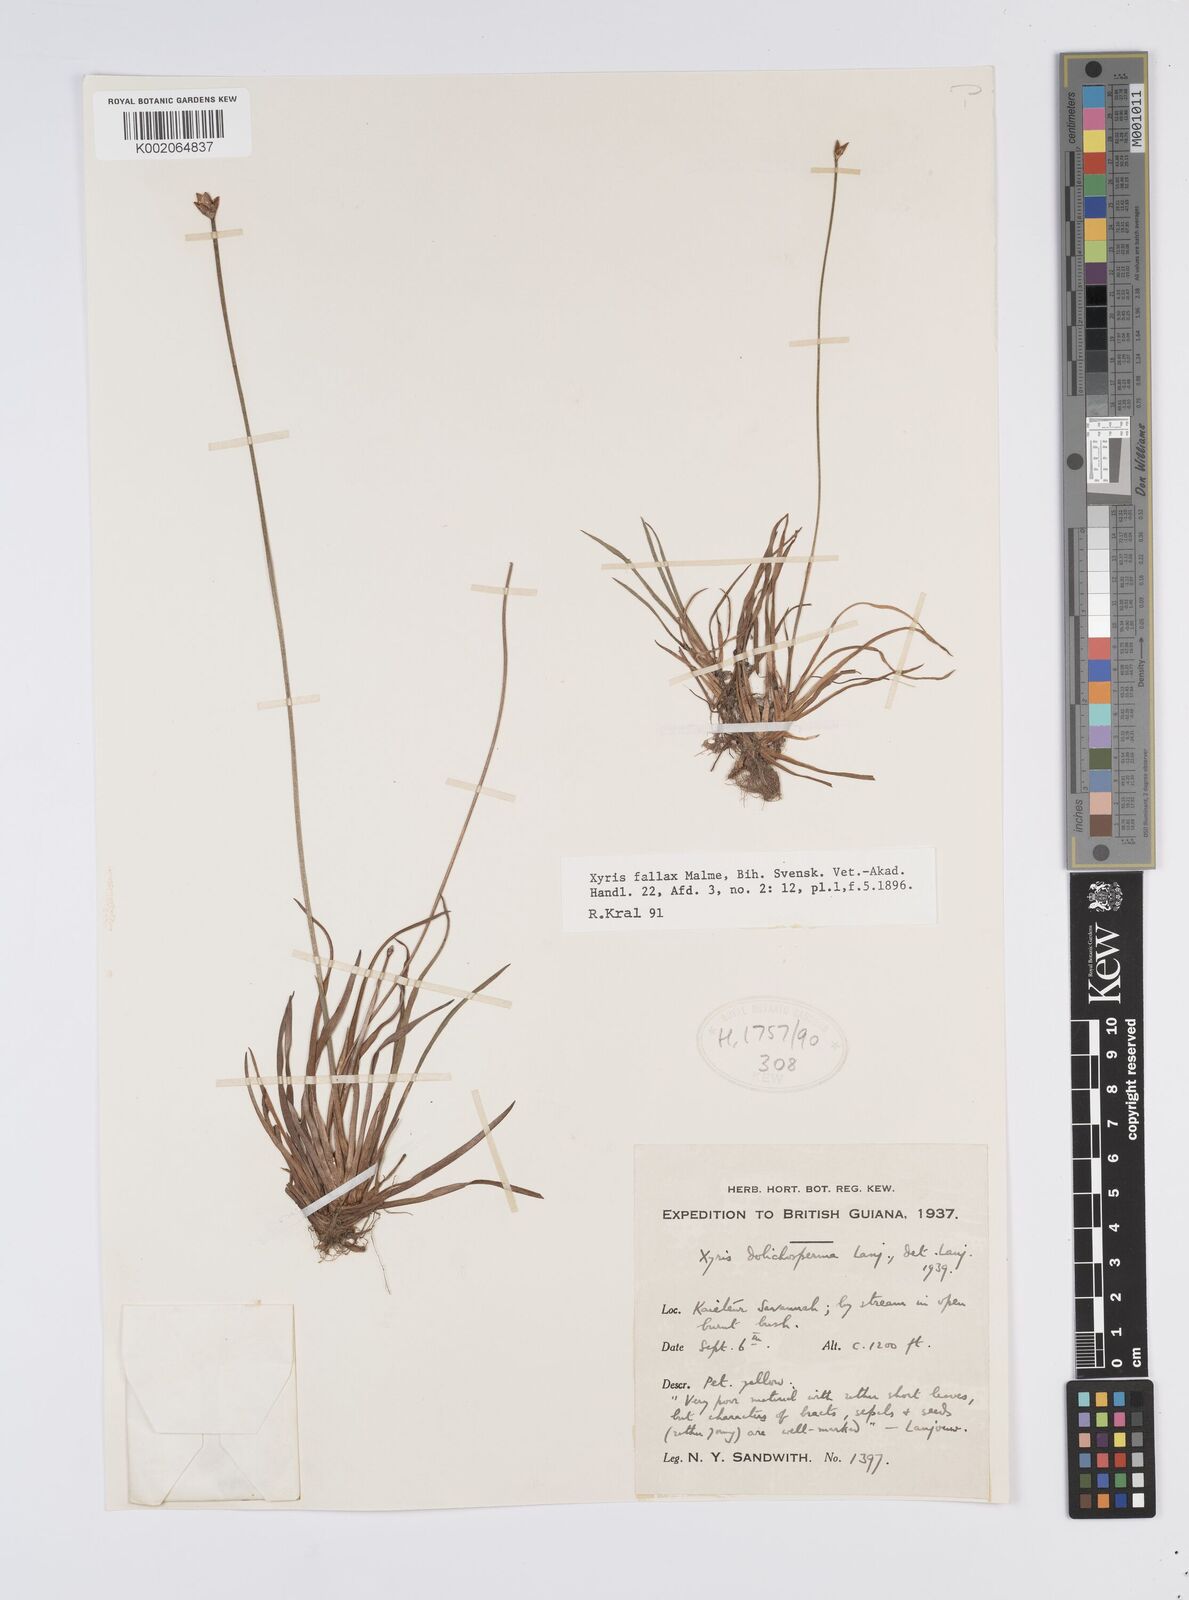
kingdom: Plantae
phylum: Tracheophyta
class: Liliopsida
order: Poales
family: Xyridaceae
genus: Xyris
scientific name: Xyris fallax
